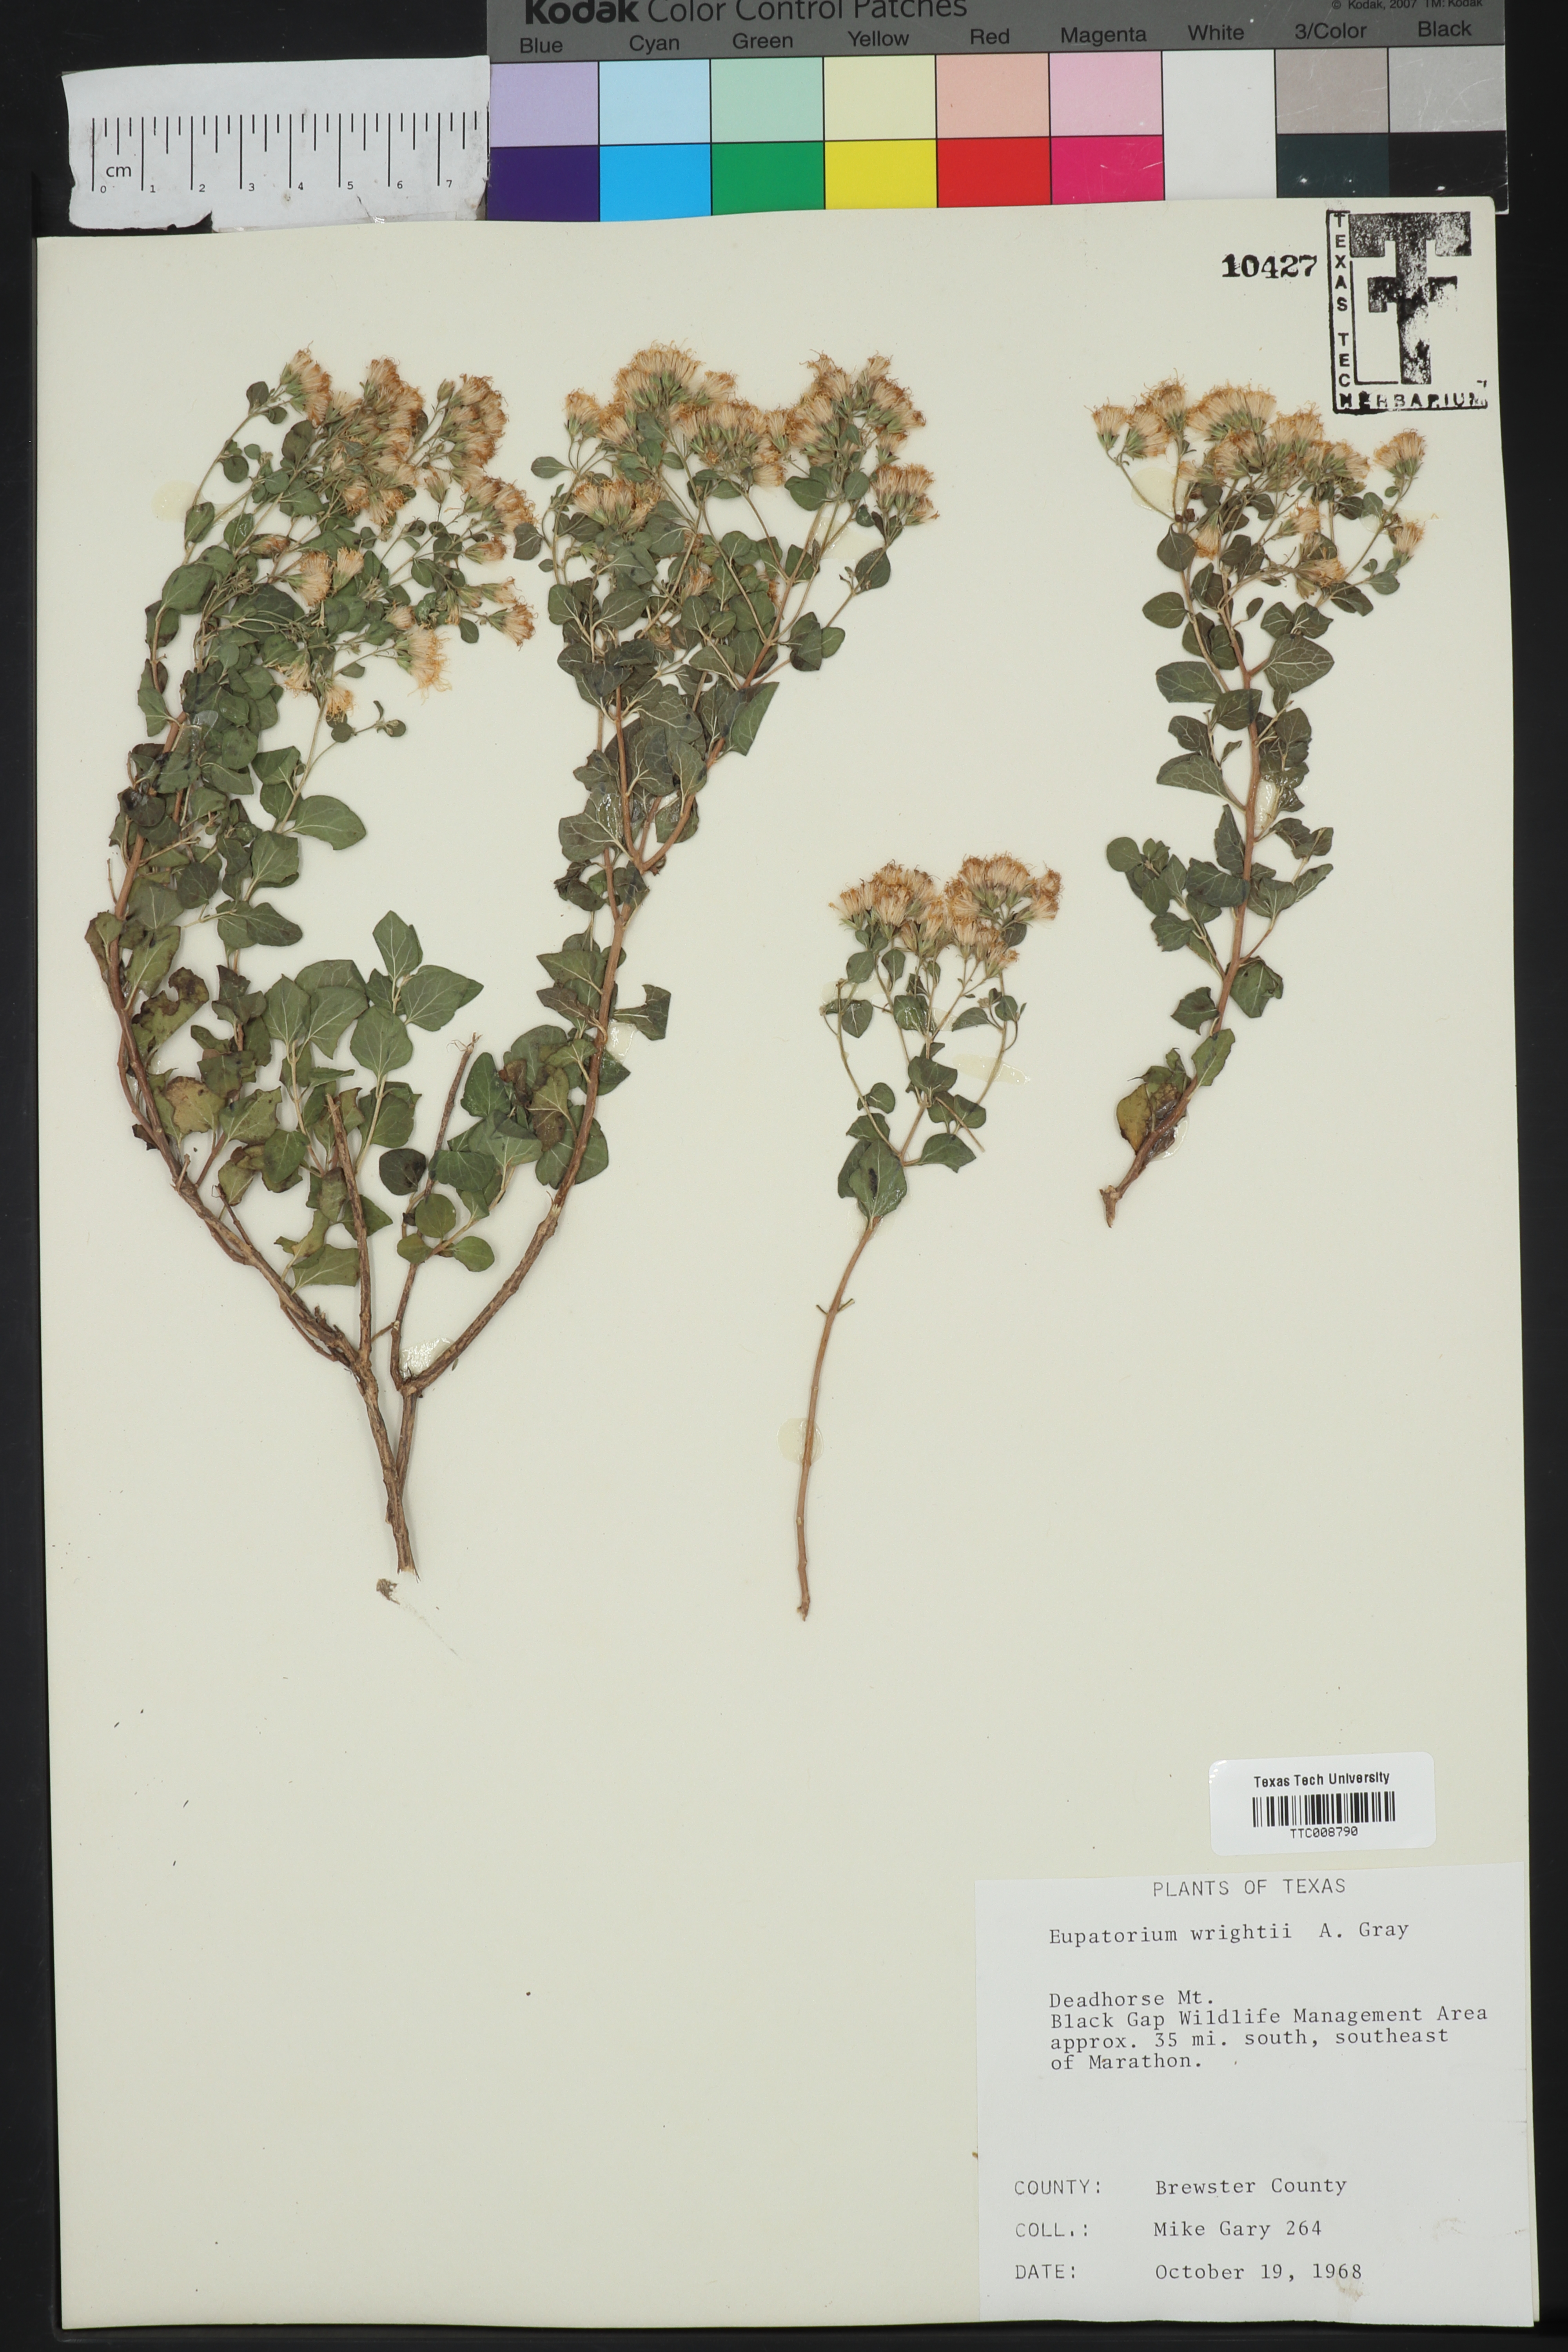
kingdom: Plantae
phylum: Tracheophyta
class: Magnoliopsida
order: Asterales
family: Asteraceae
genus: Ageratina
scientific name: Ageratina wrightii
